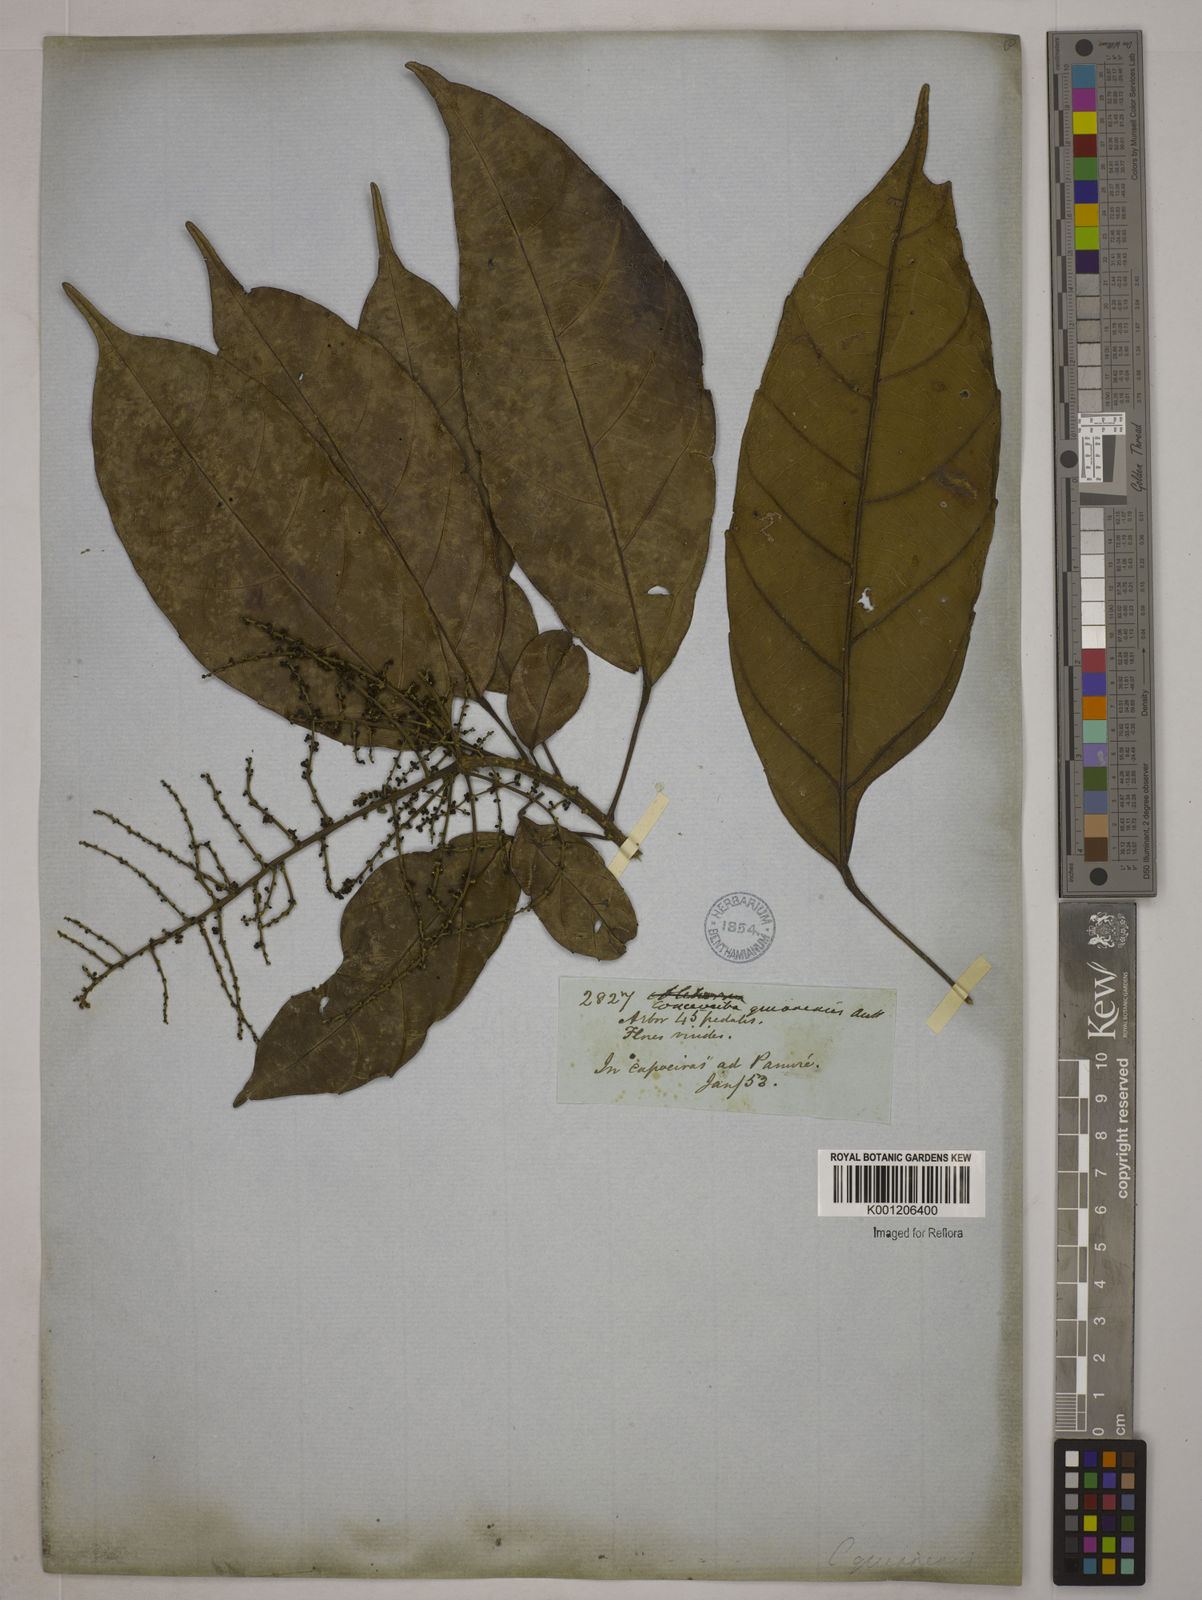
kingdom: Plantae
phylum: Tracheophyta
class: Magnoliopsida
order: Malpighiales
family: Euphorbiaceae
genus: Conceveiba
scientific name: Conceveiba guianensis
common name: Poatoru
